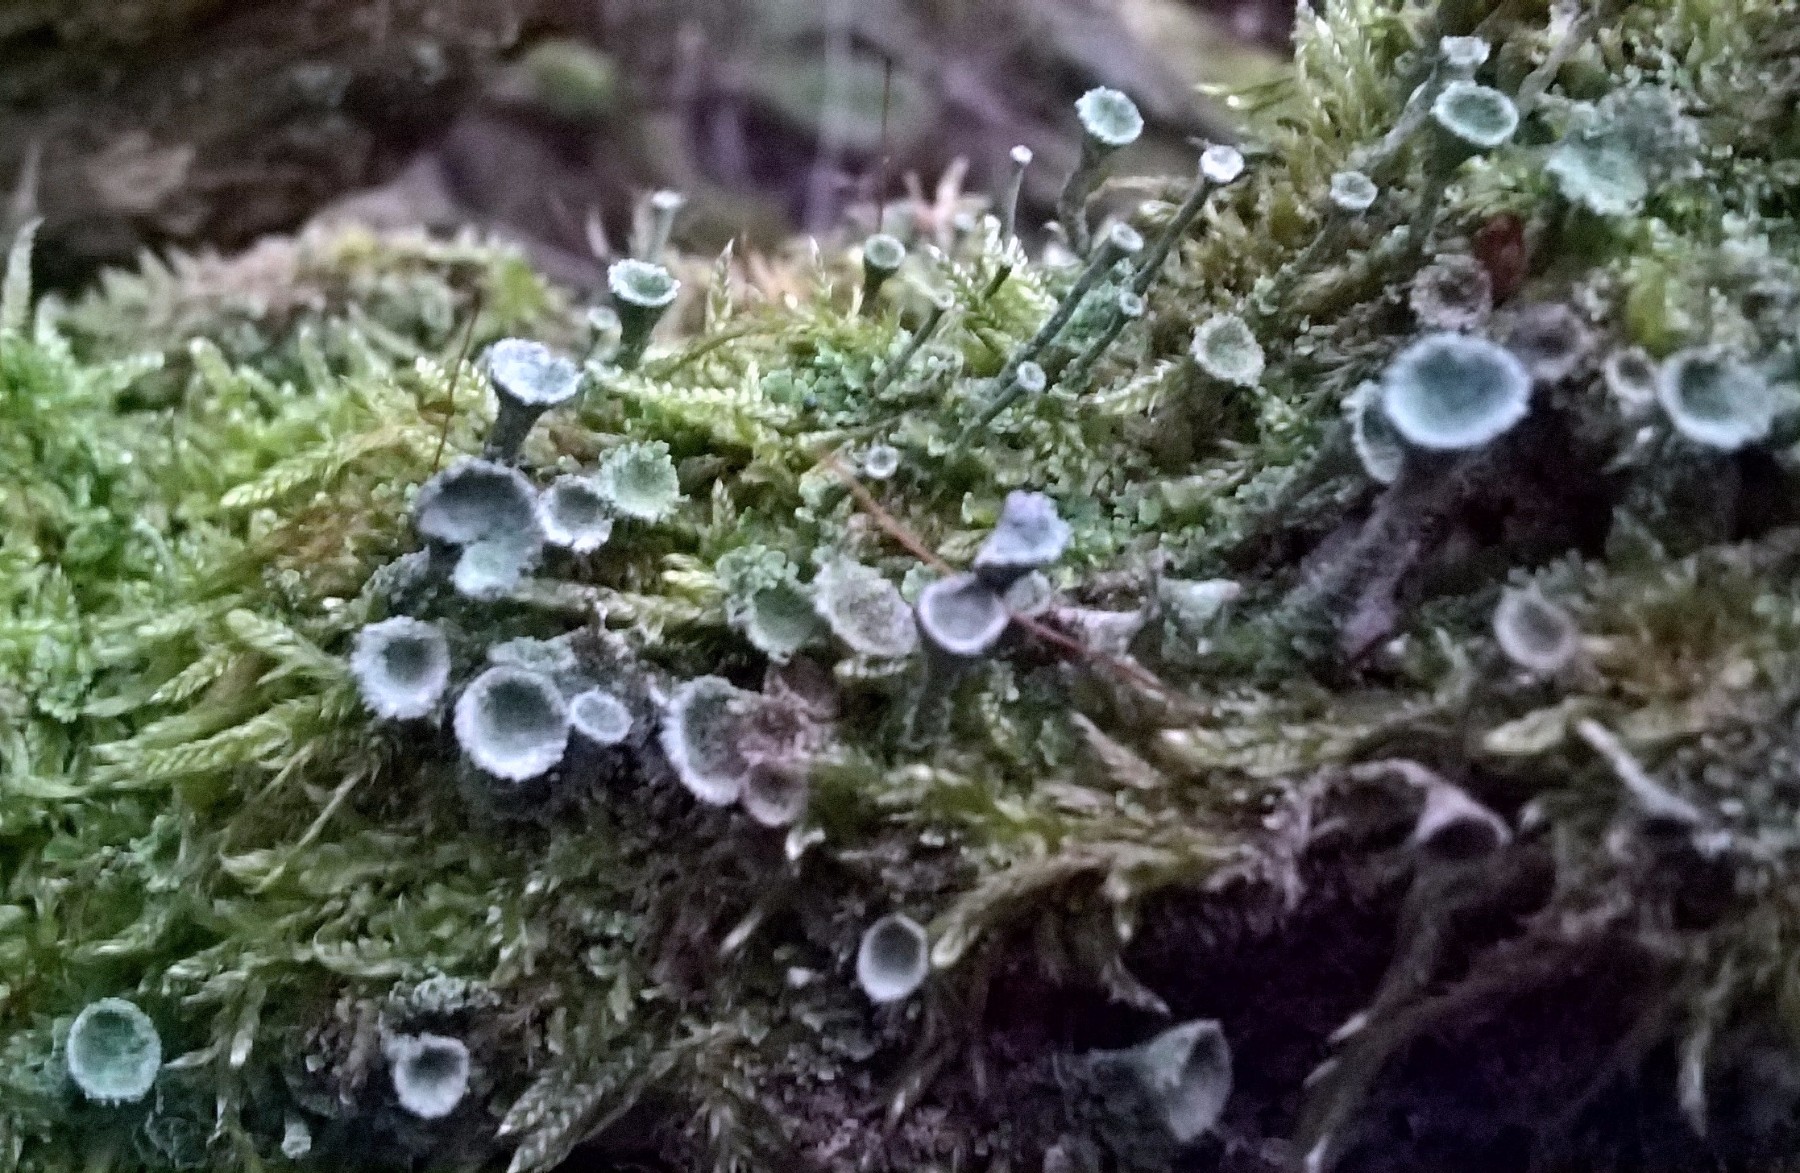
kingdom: Fungi
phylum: Ascomycota
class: Lecanoromycetes
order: Lecanorales
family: Cladoniaceae
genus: Cladonia
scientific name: Cladonia
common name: brungrøn bægerlav
